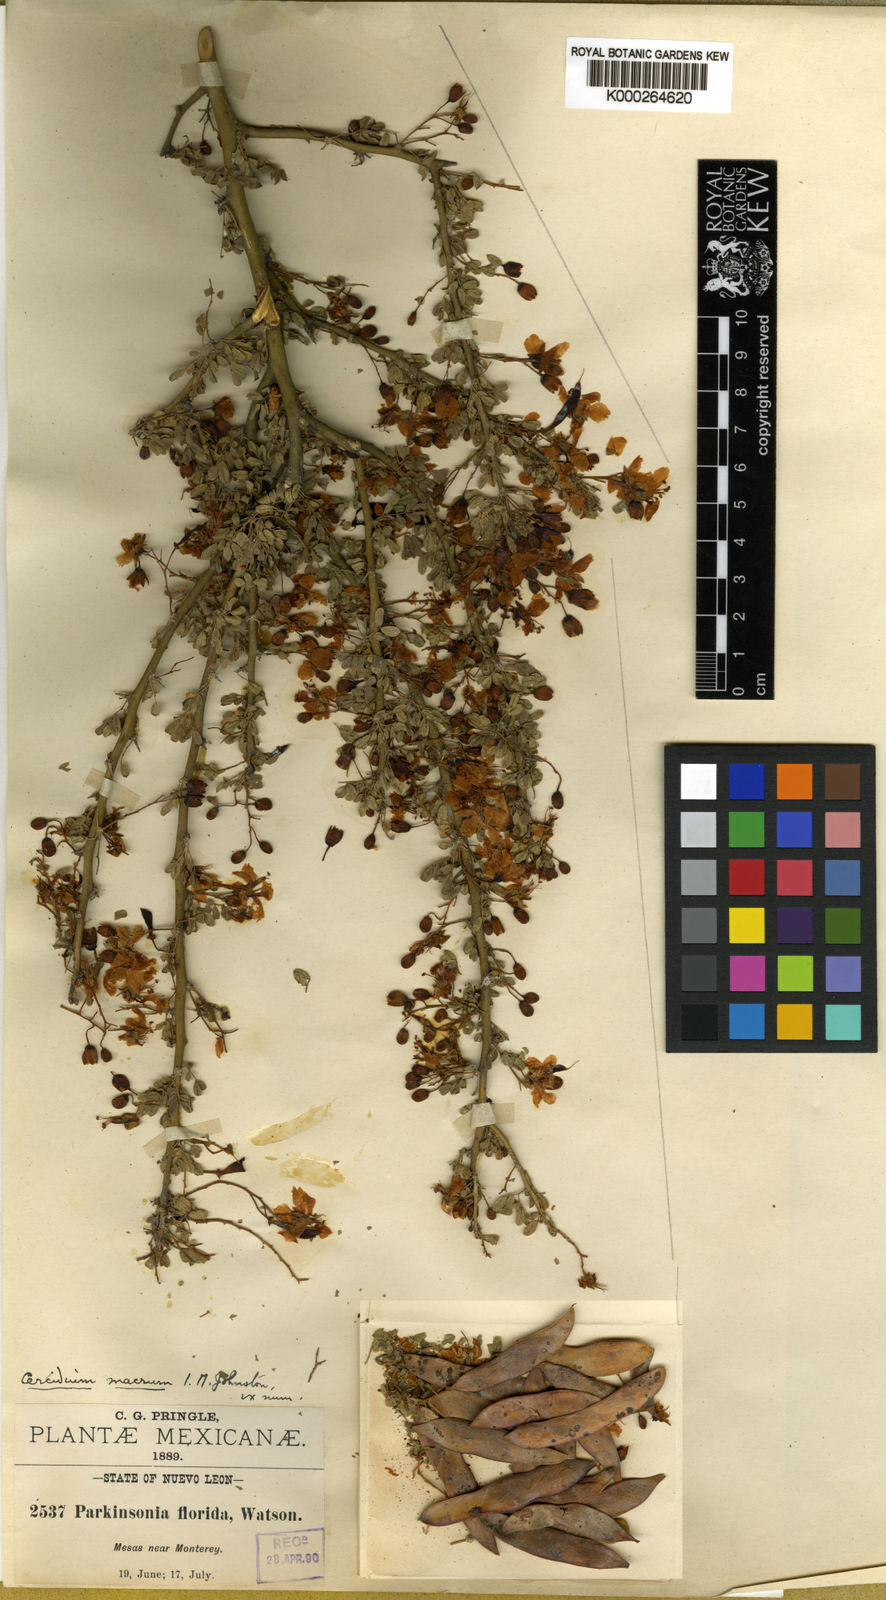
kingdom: Plantae
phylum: Tracheophyta
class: Magnoliopsida
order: Fabales
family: Fabaceae
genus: Parkinsonia
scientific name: Parkinsonia texana
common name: Texas paloverde
